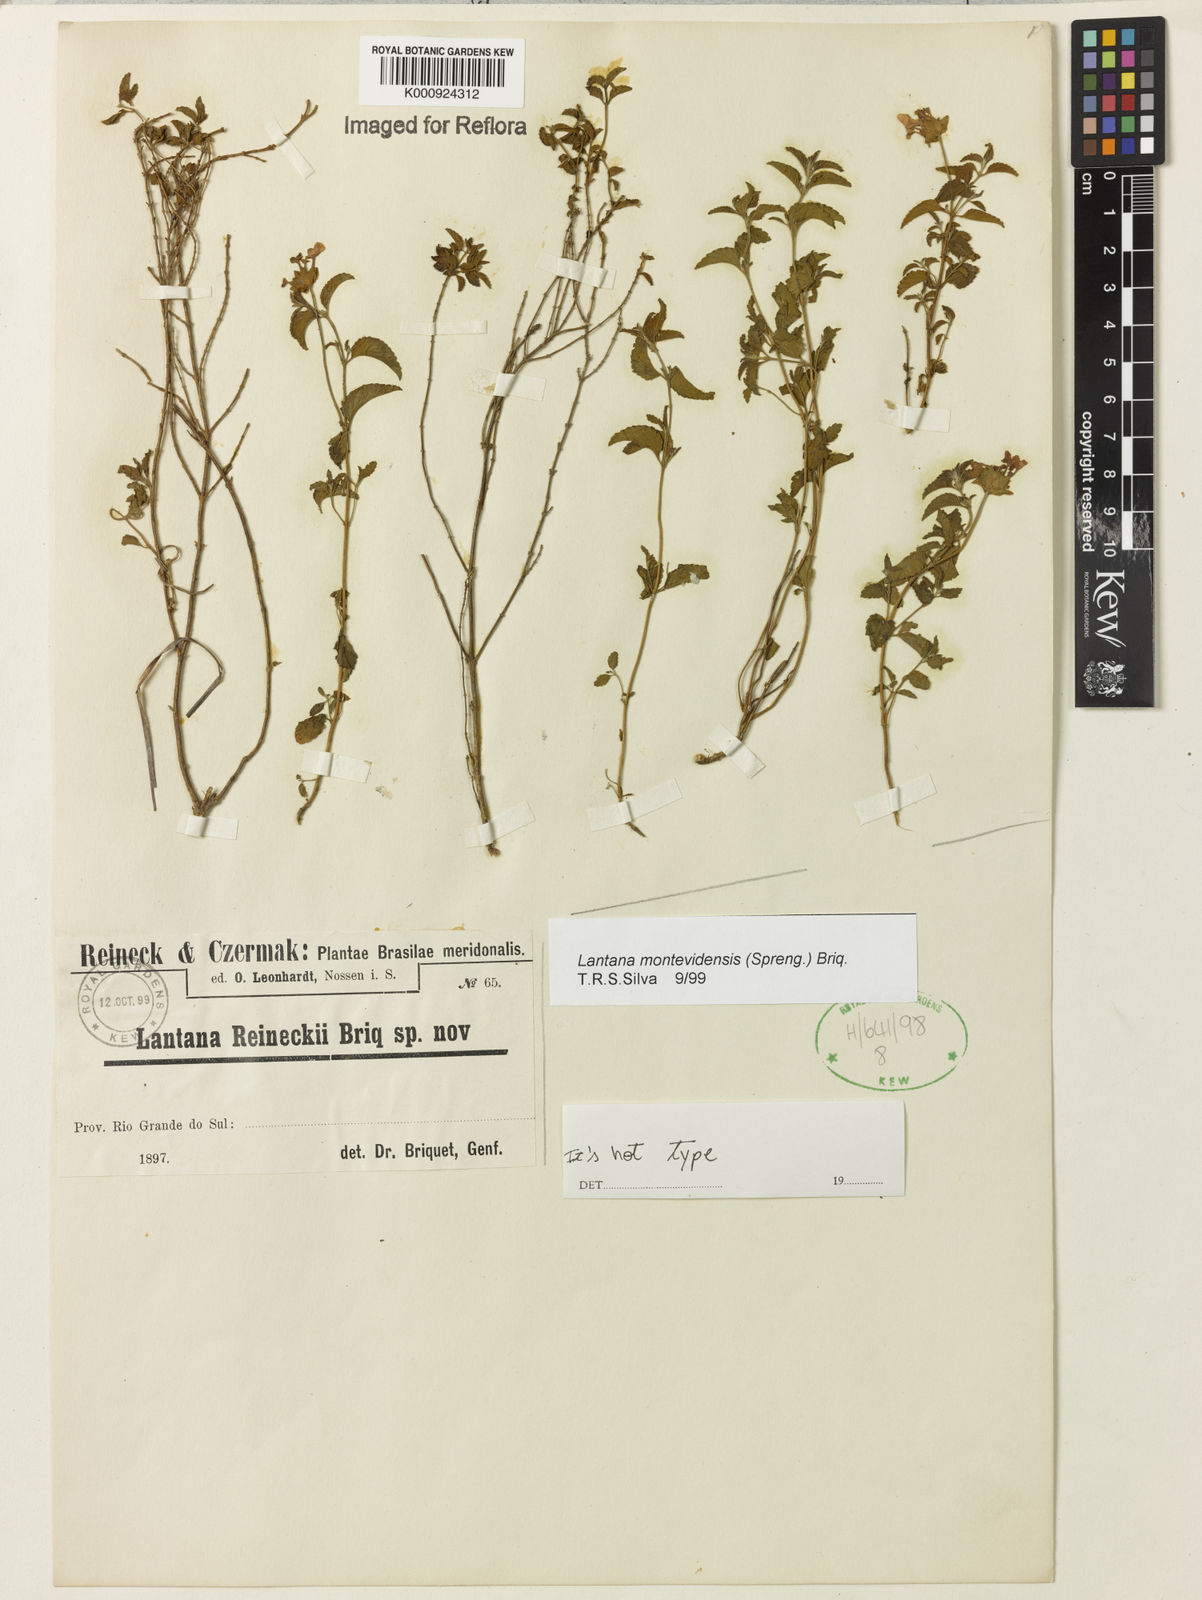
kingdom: Plantae
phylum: Tracheophyta
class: Magnoliopsida
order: Lamiales
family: Verbenaceae
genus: Lantana
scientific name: Lantana montevidensis
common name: Trailing shrubverbena
